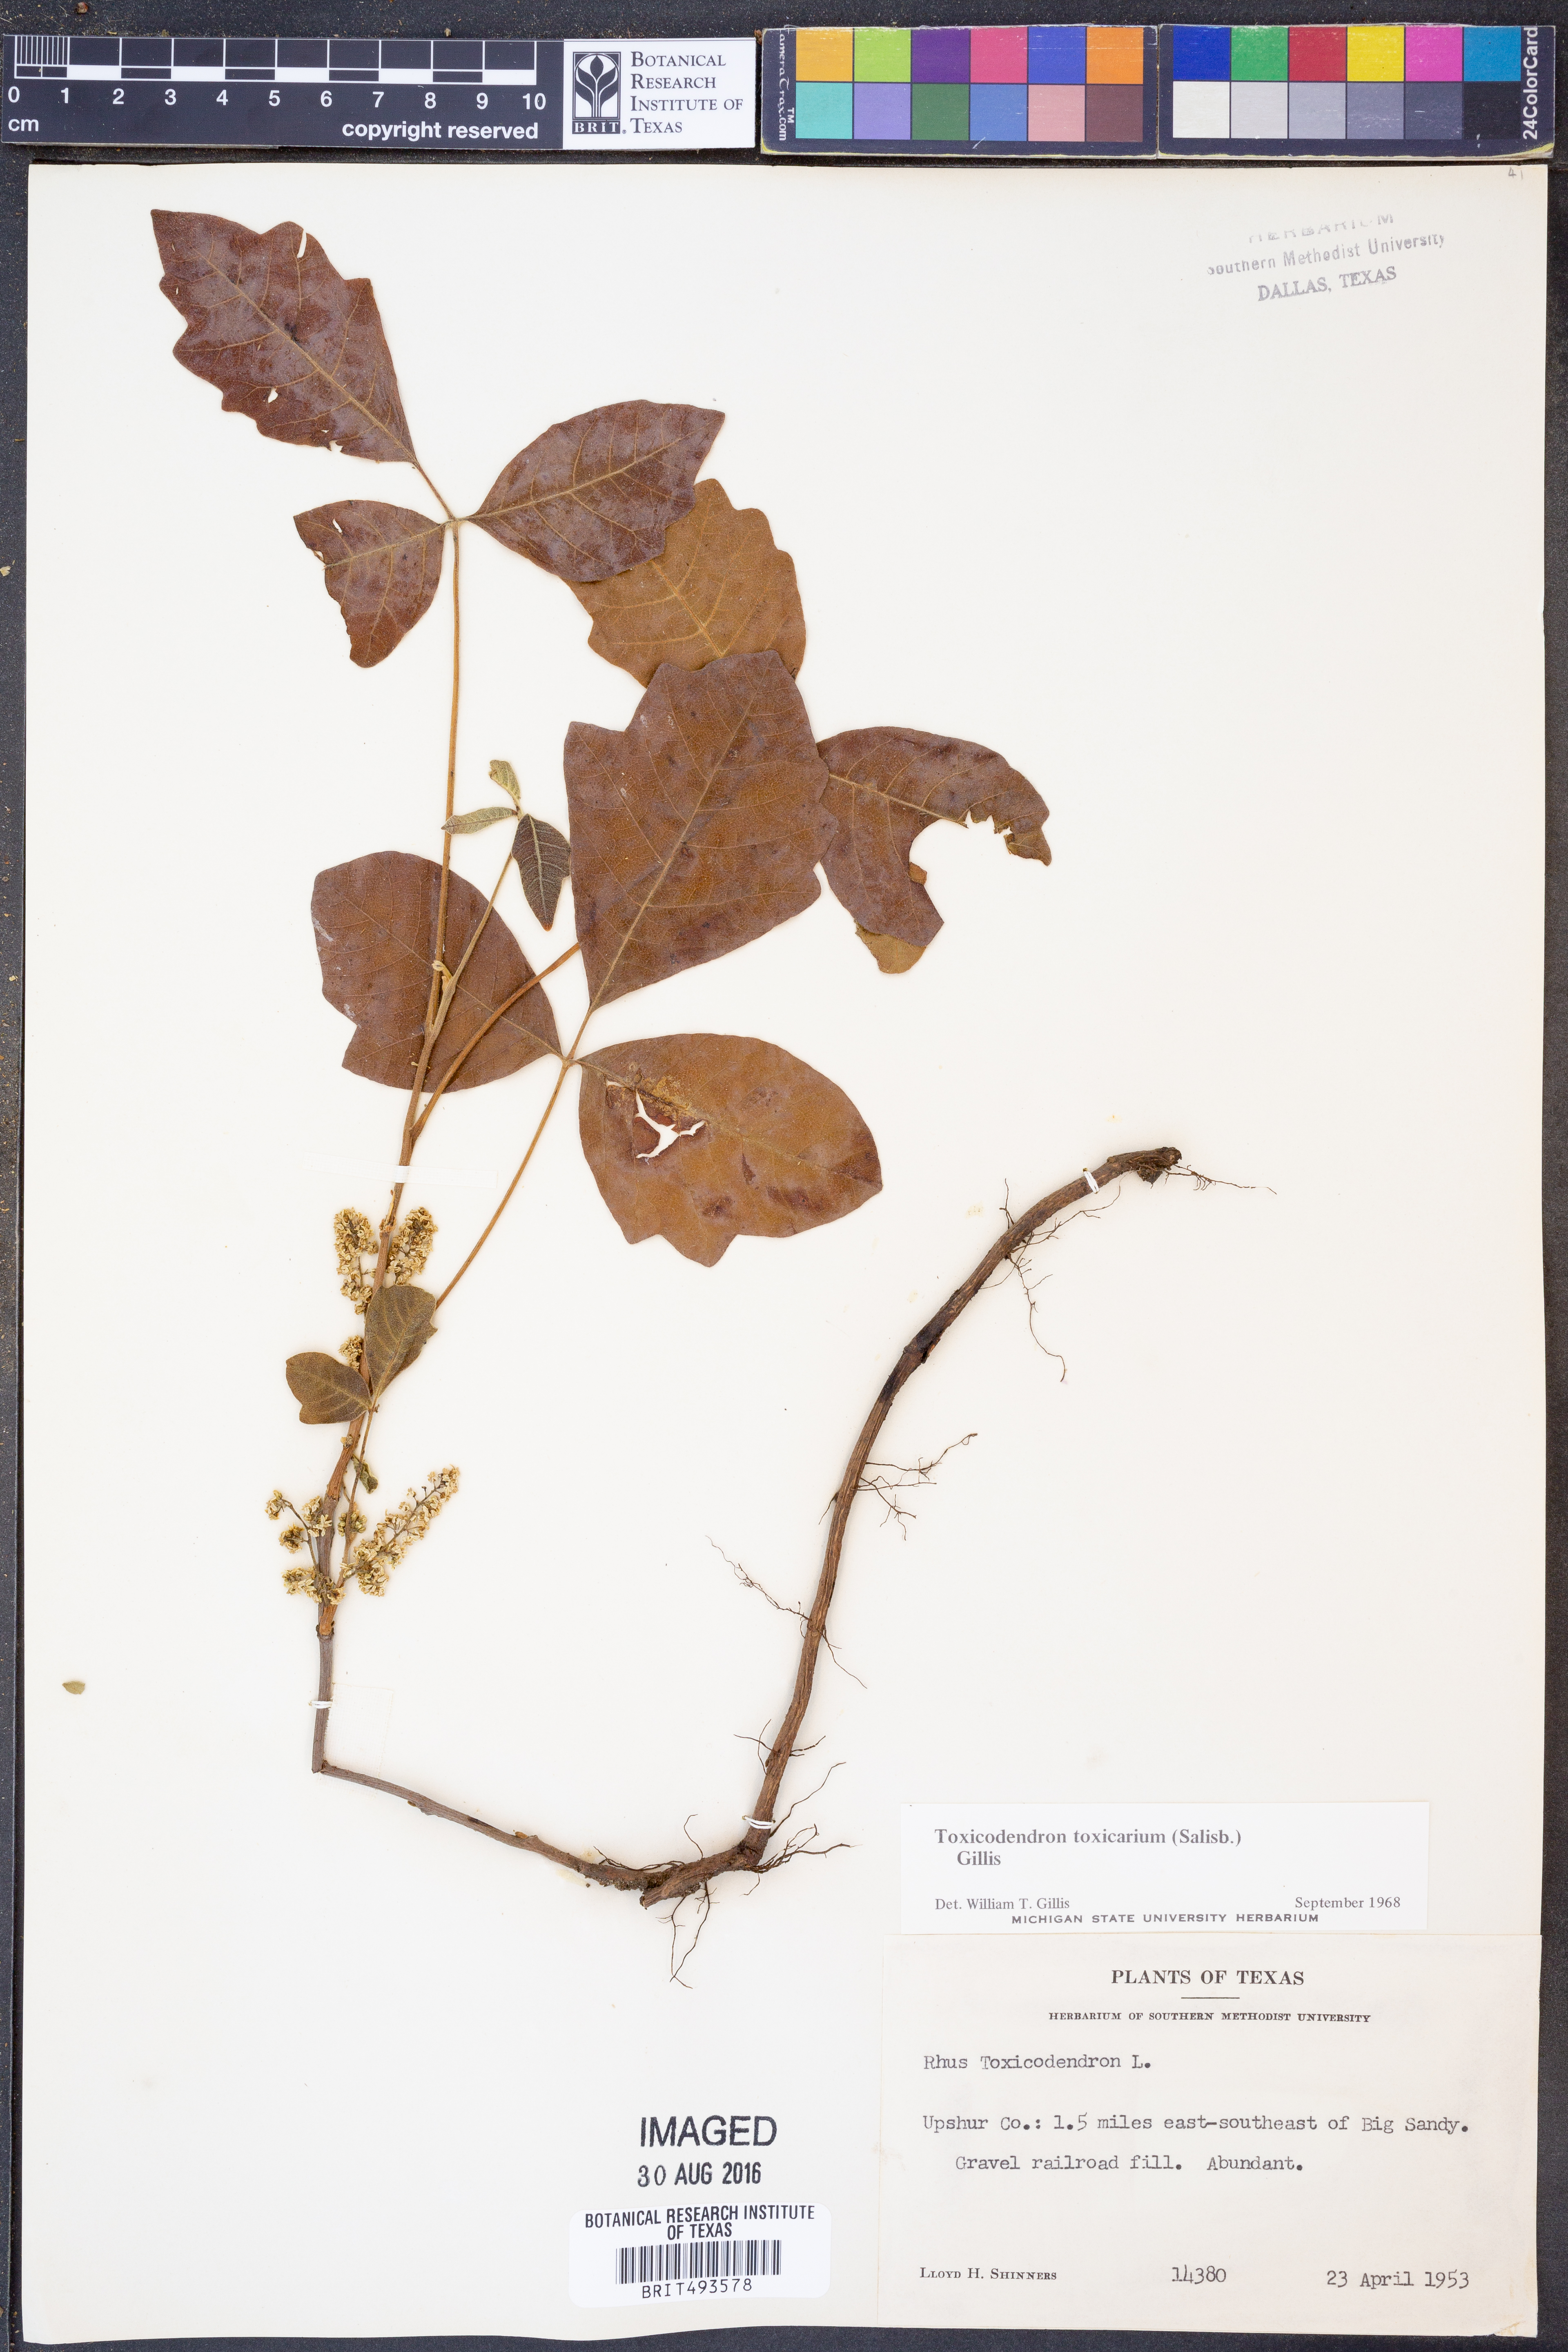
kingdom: Plantae
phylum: Tracheophyta
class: Magnoliopsida
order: Sapindales
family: Anacardiaceae
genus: Toxicodendron
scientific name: Toxicodendron pubescens
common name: Eastern poison-oak
